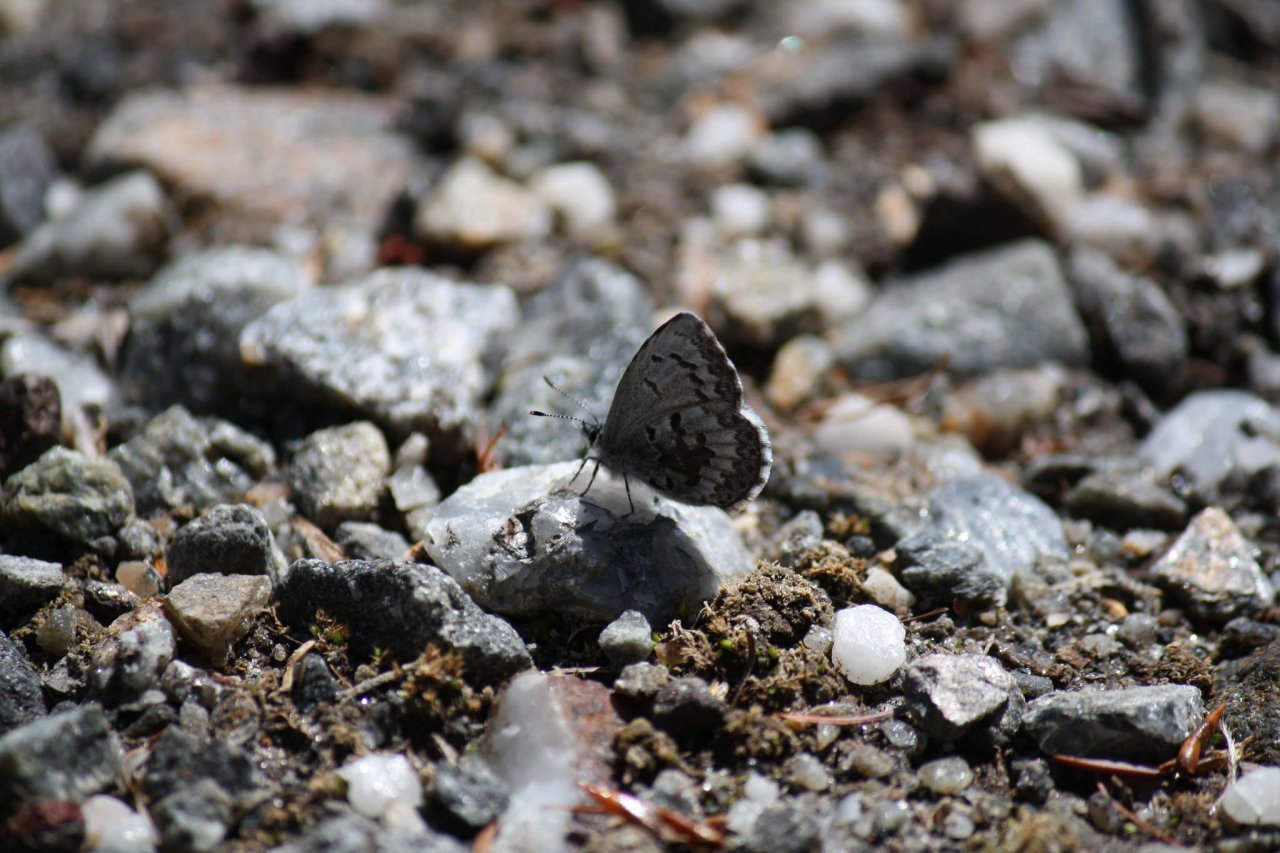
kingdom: Animalia
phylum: Arthropoda
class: Insecta
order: Lepidoptera
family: Lycaenidae
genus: Celastrina
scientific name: Celastrina lucia
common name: Northern Spring Azure
